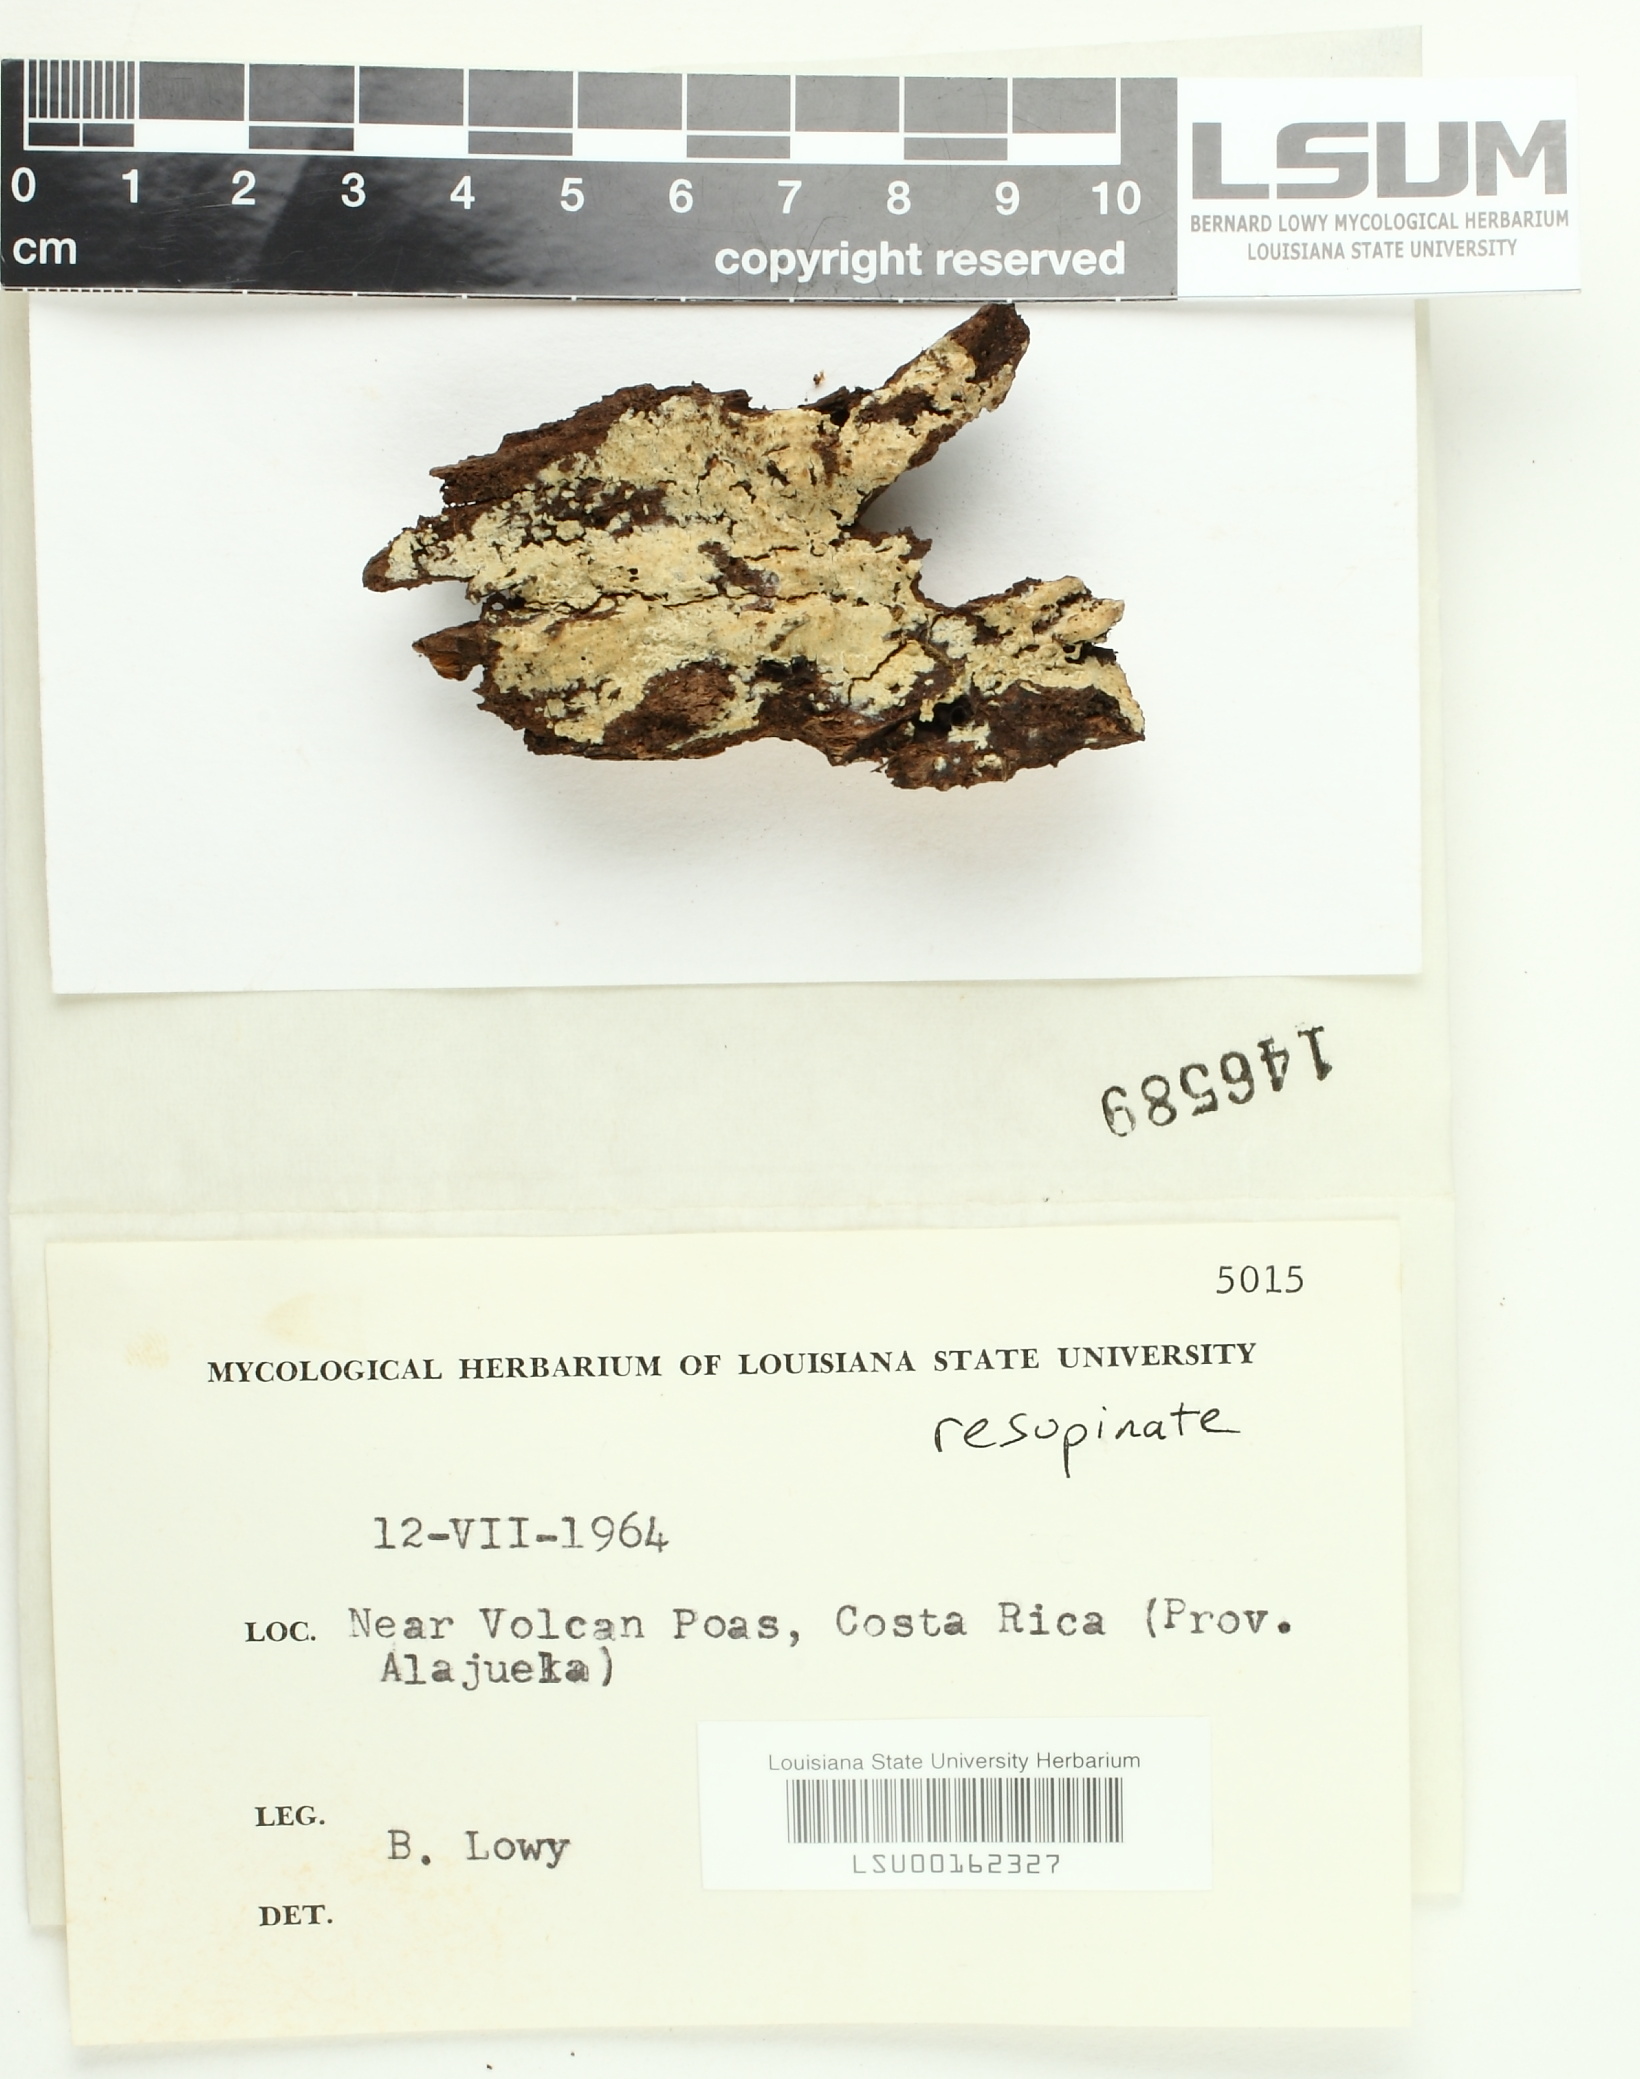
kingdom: Fungi
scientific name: Fungi
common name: Fungi
